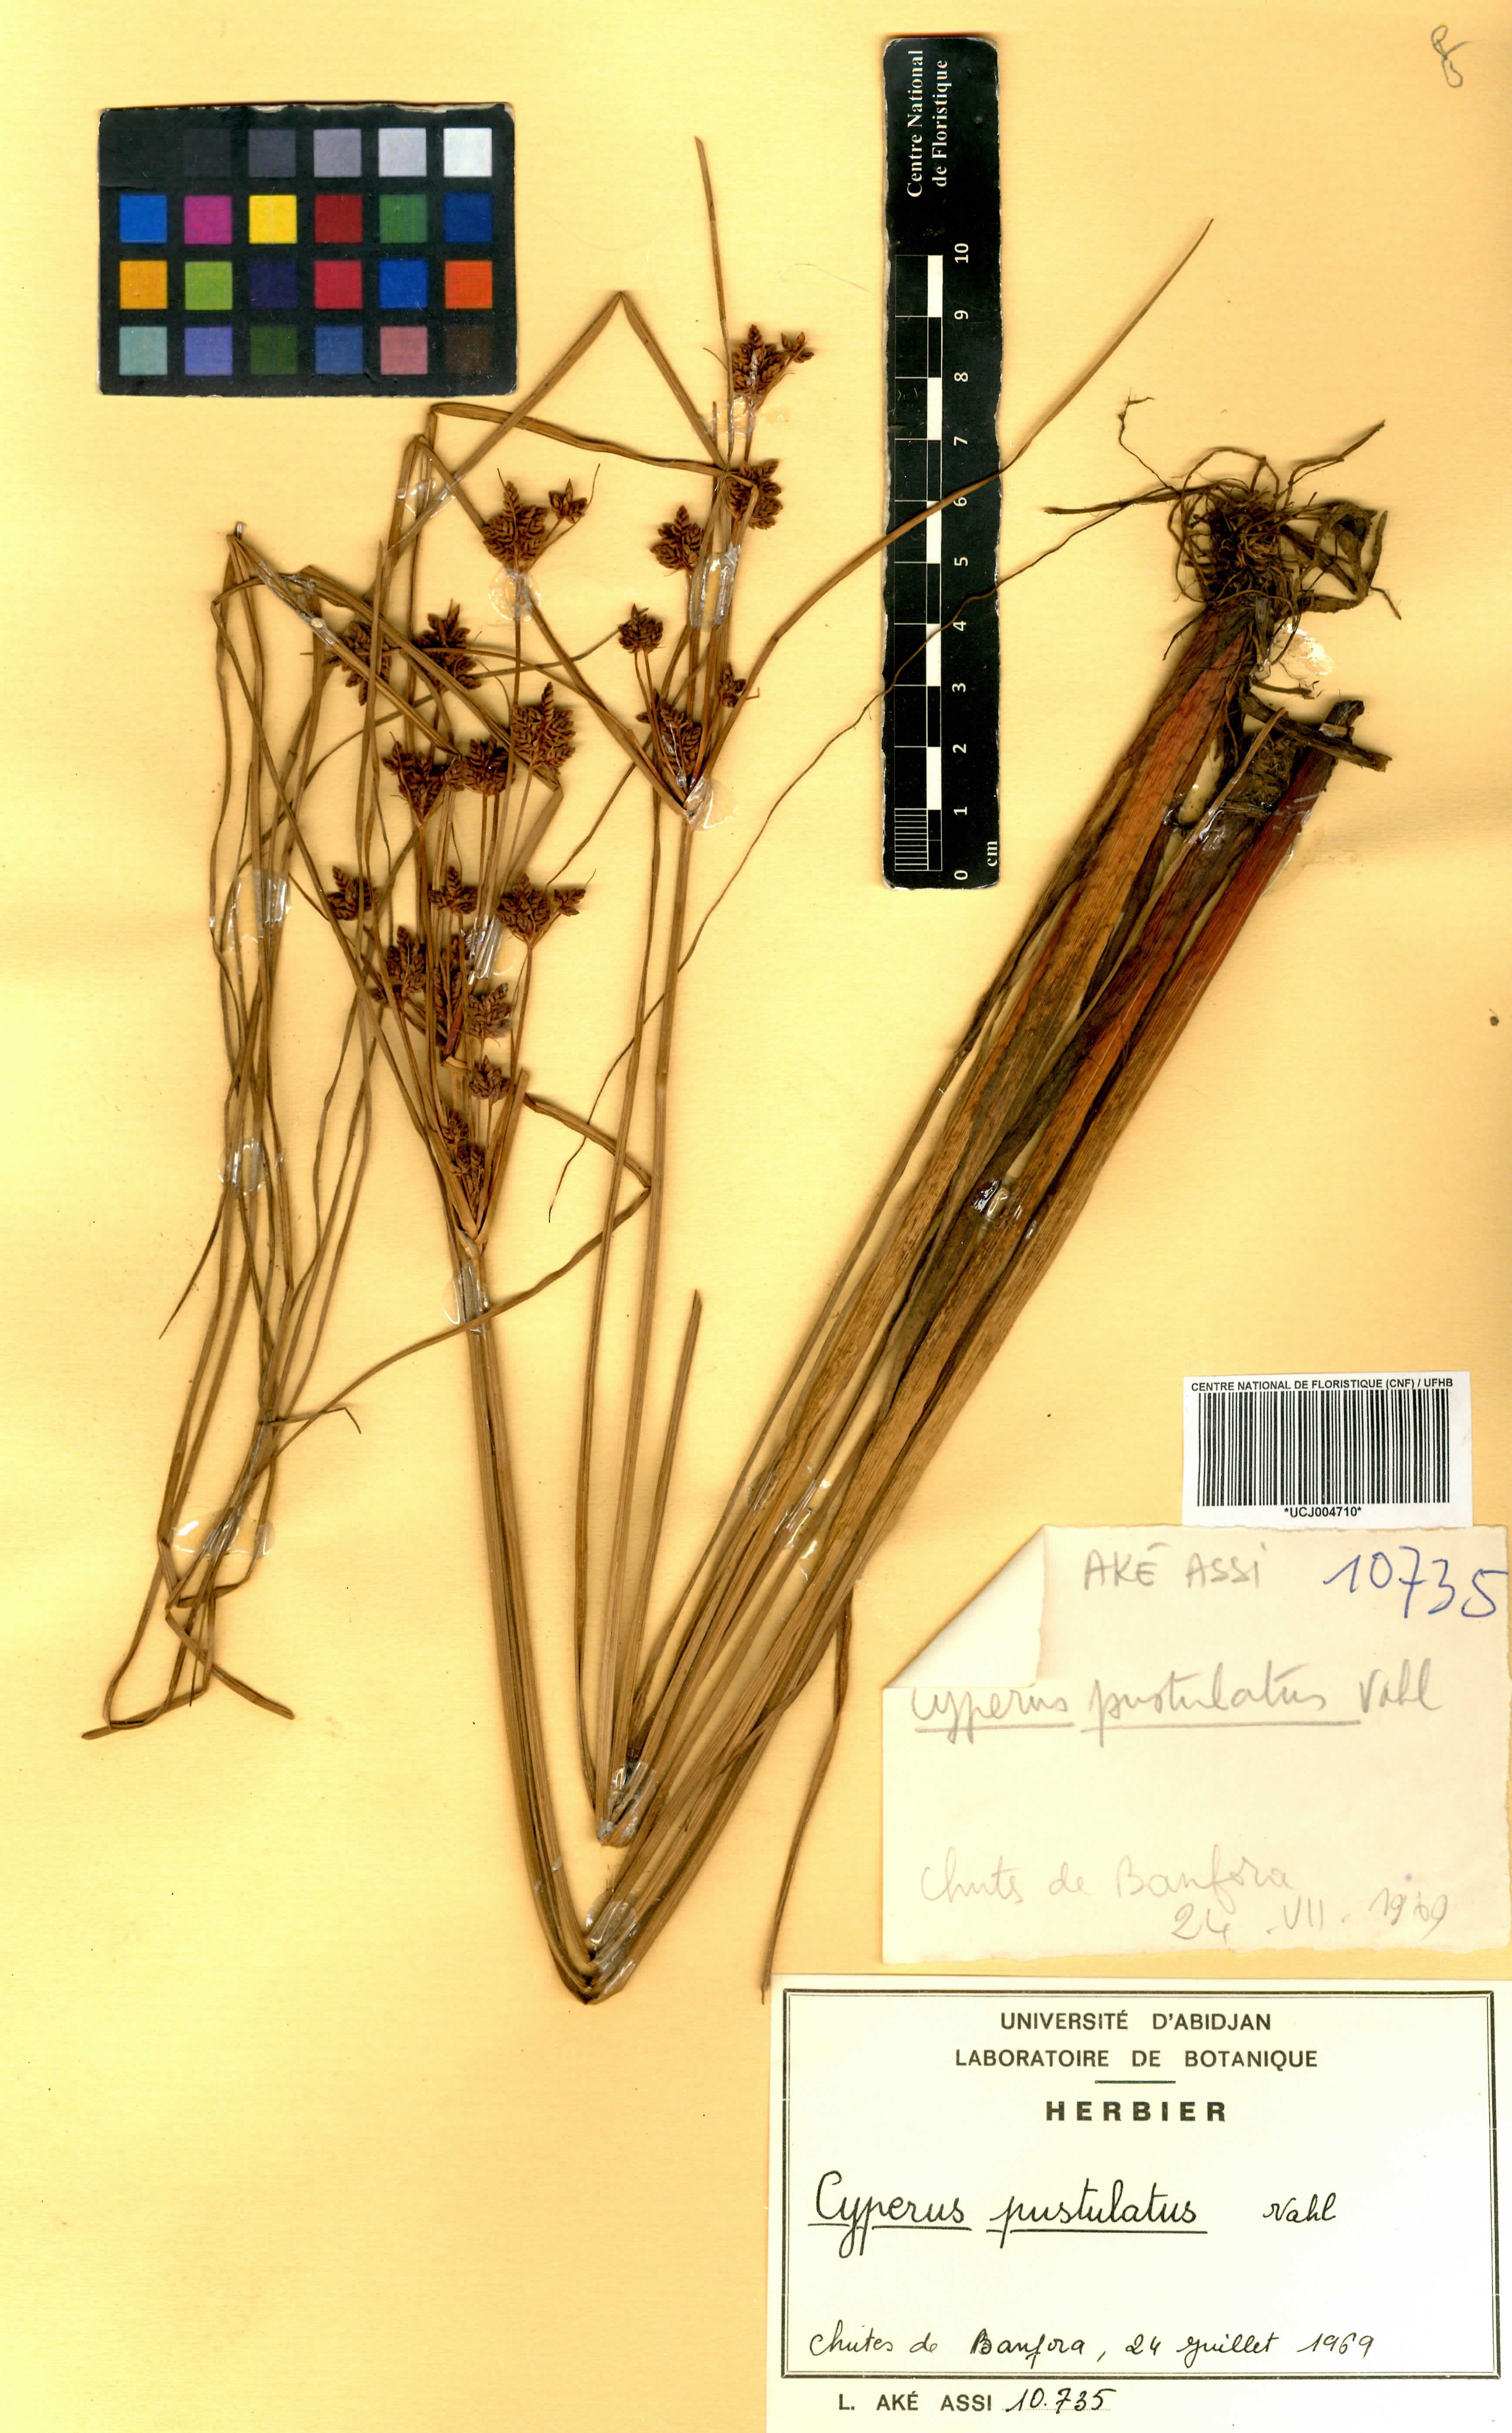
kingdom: Plantae
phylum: Tracheophyta
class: Liliopsida
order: Poales
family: Cyperaceae
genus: Cyperus
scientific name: Cyperus pustulatus
